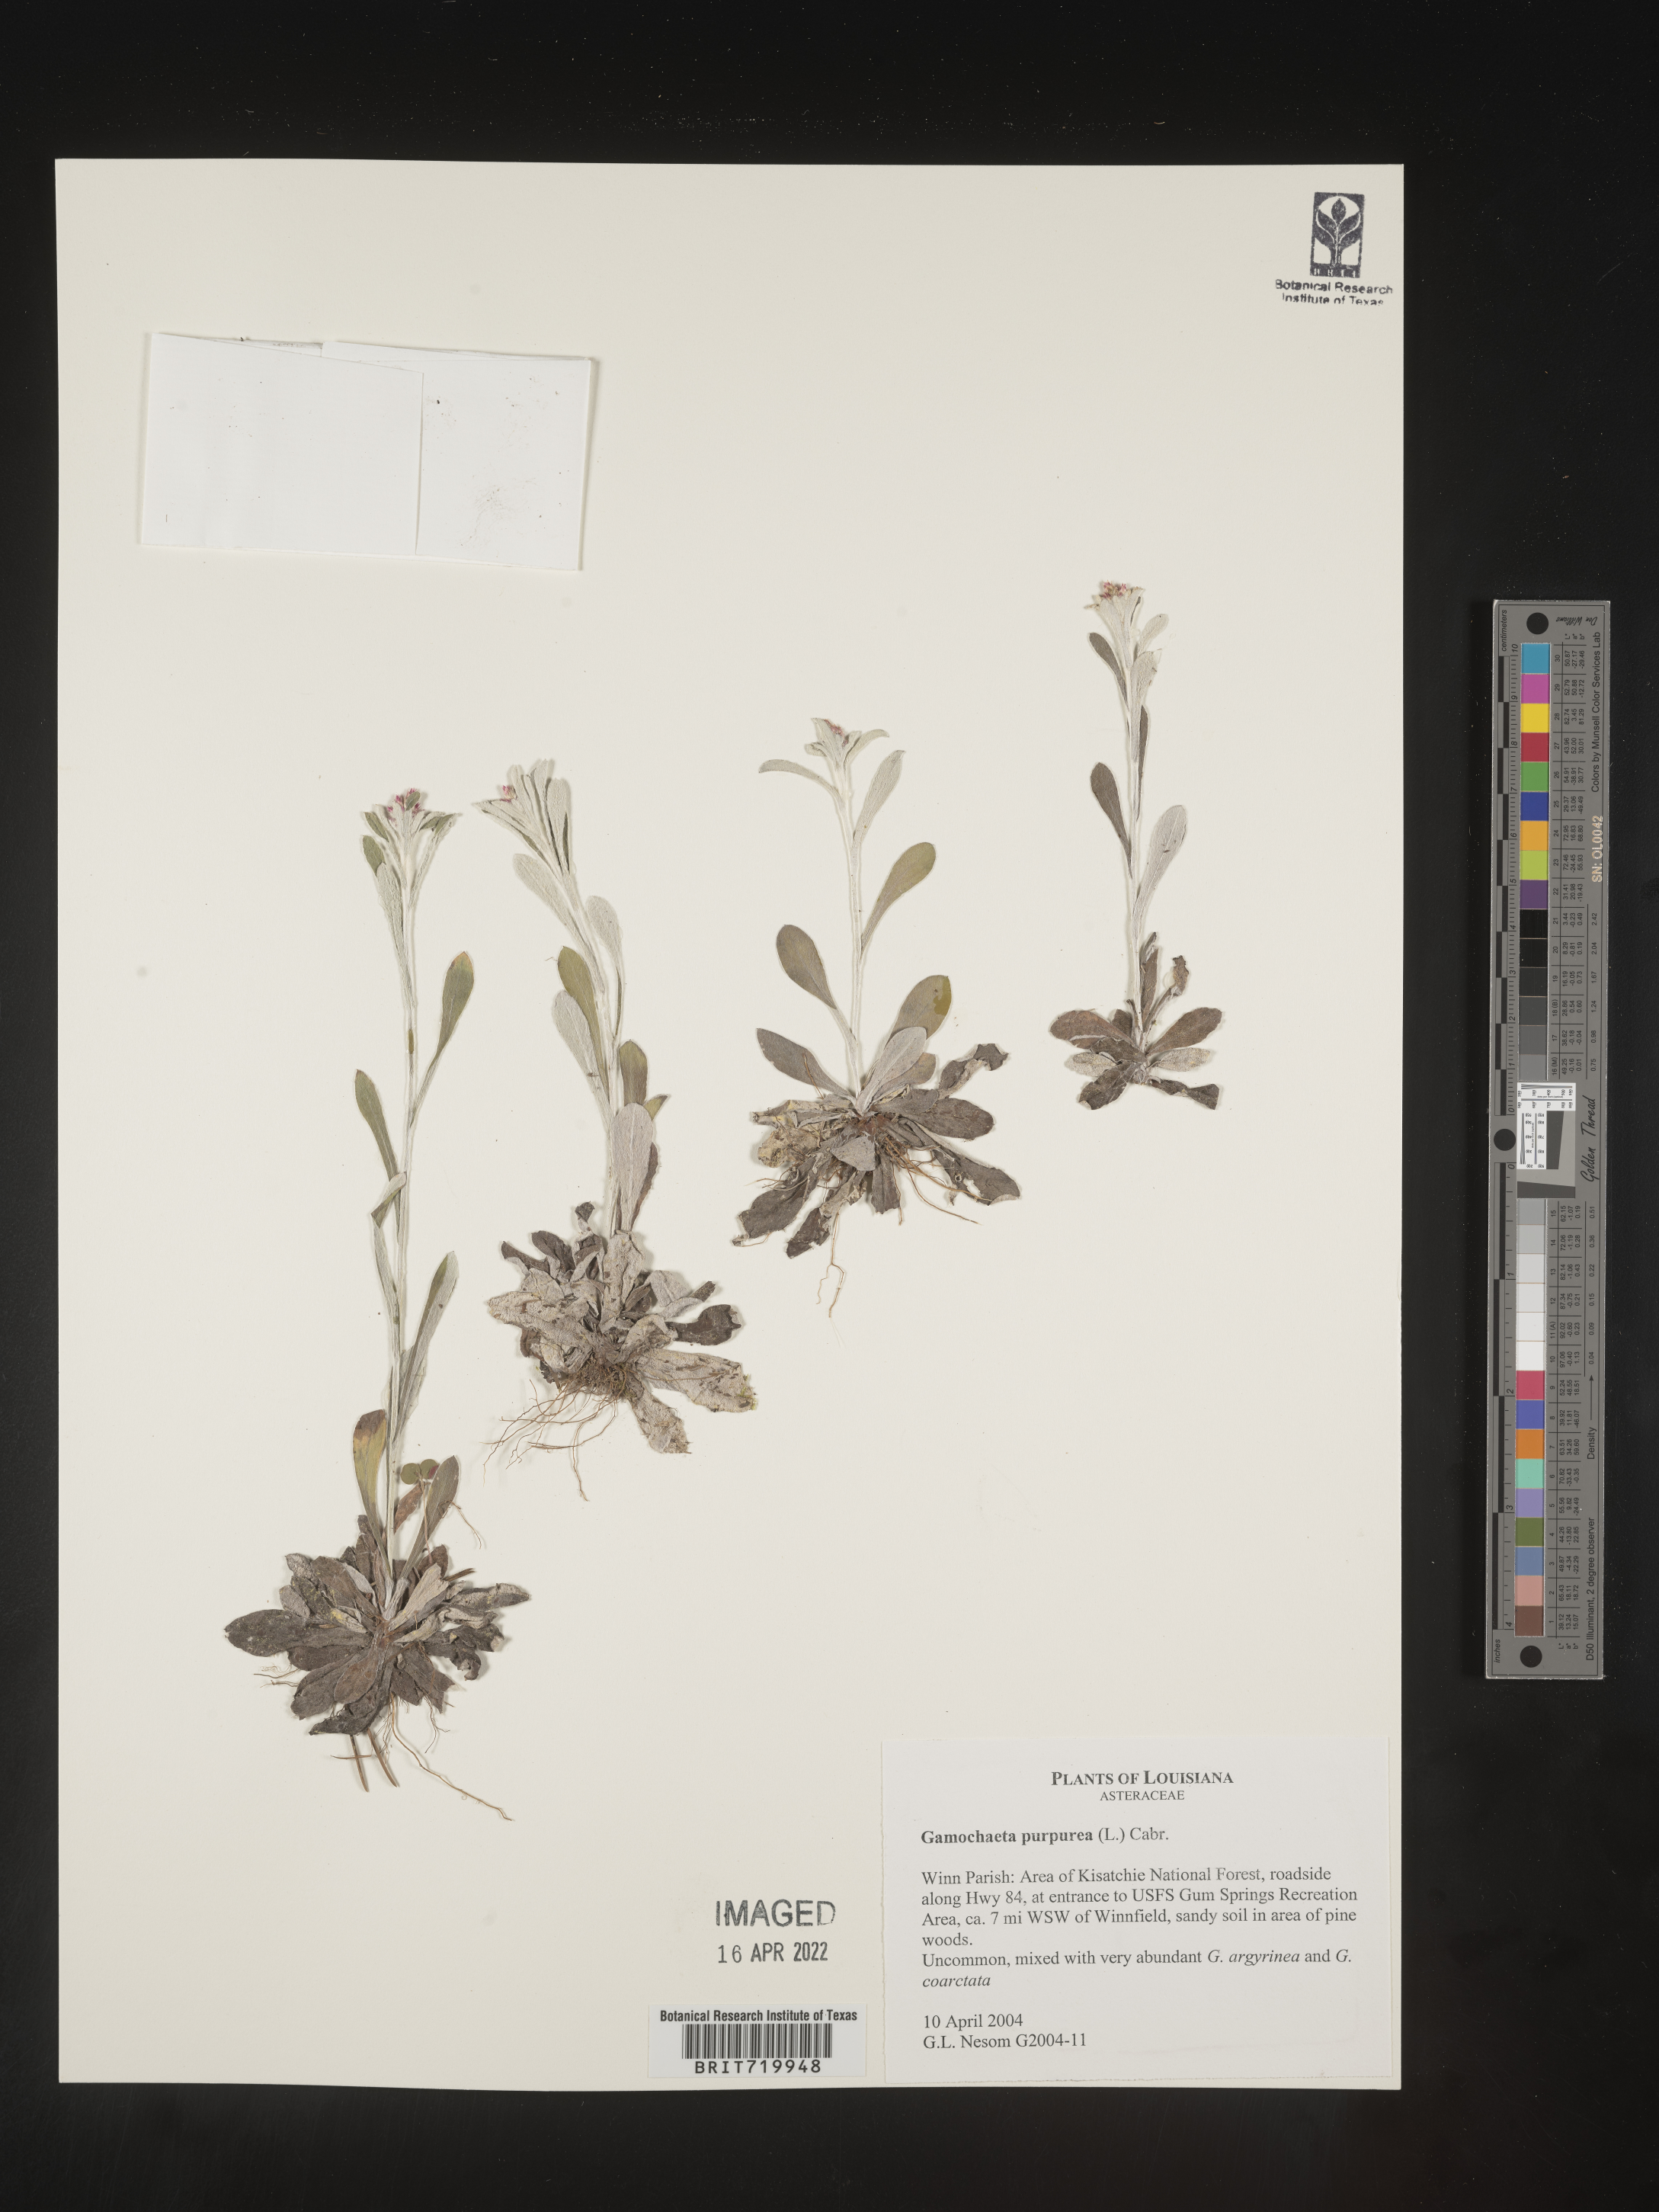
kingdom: Plantae
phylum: Tracheophyta
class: Magnoliopsida
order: Asterales
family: Asteraceae
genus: Gamochaeta
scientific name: Gamochaeta purpurea
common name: Purple cudweed
